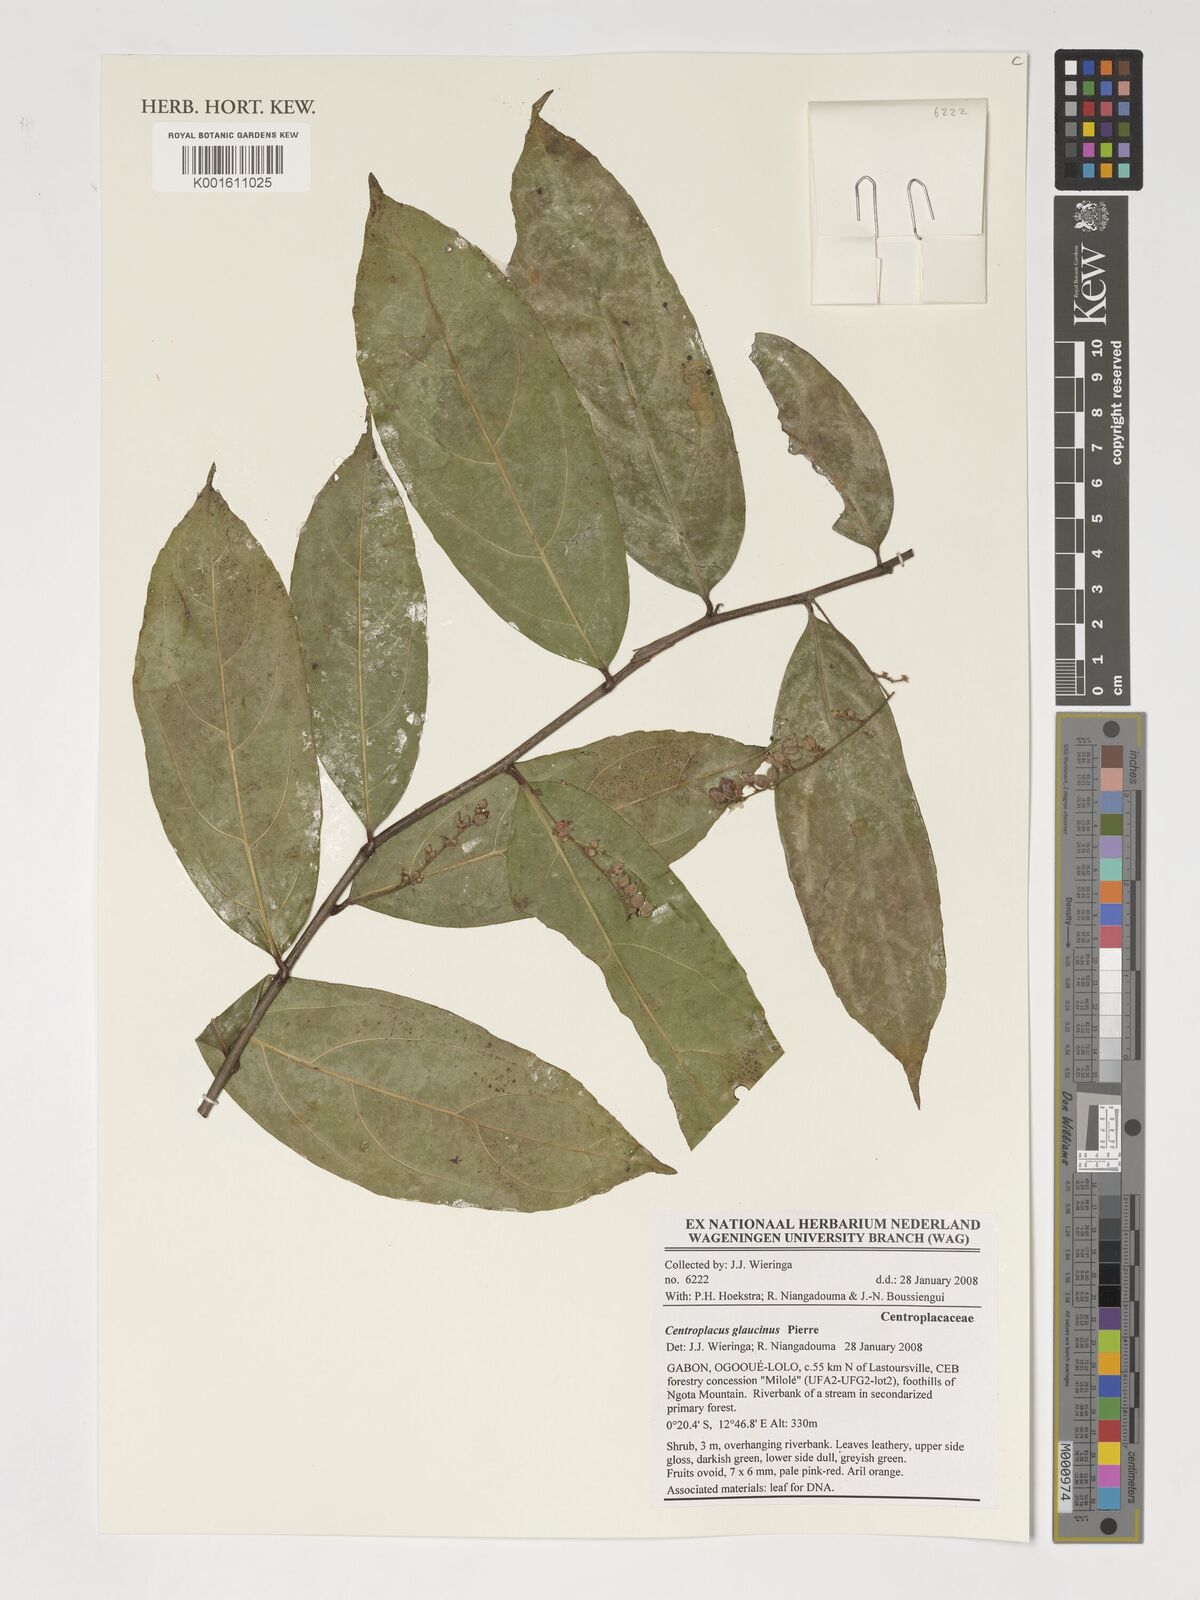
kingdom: Plantae
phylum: Tracheophyta
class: Magnoliopsida
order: Malpighiales
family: Centroplacaceae
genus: Centroplacus
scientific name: Centroplacus glaucinus
